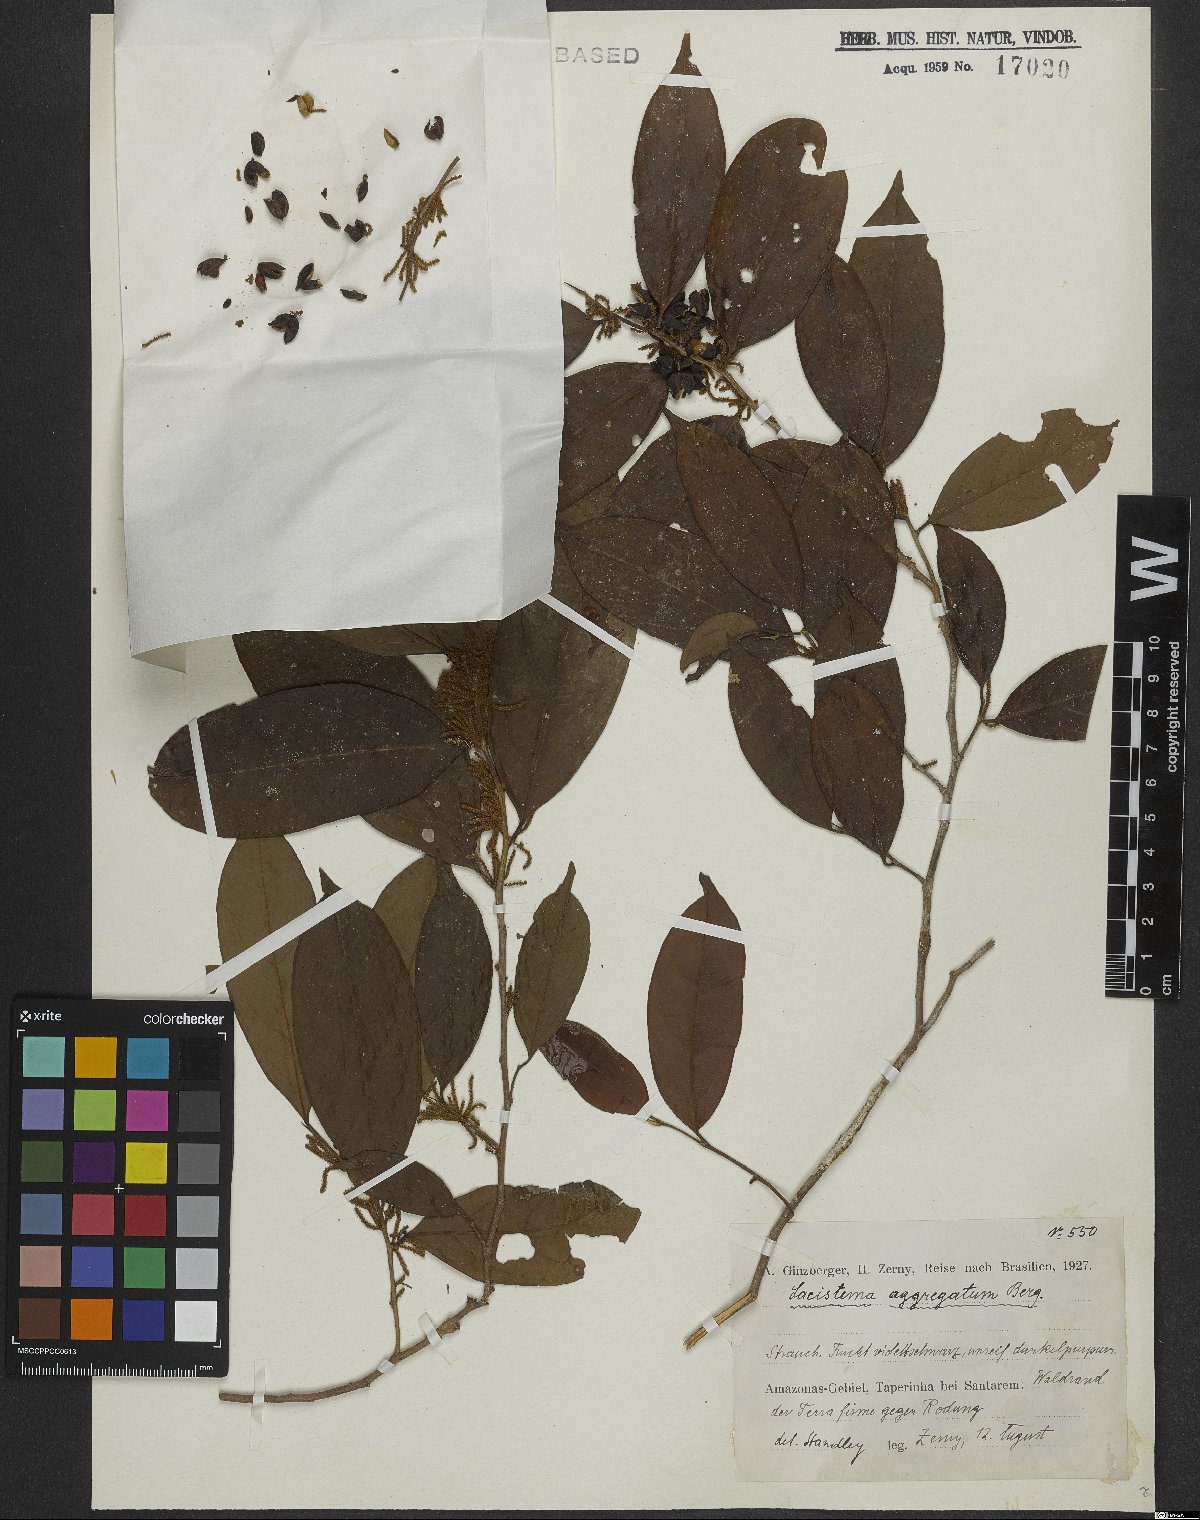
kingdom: Plantae
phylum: Tracheophyta
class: Magnoliopsida
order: Malpighiales
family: Lacistemataceae
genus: Lacistema
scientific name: Lacistema aggregatum
